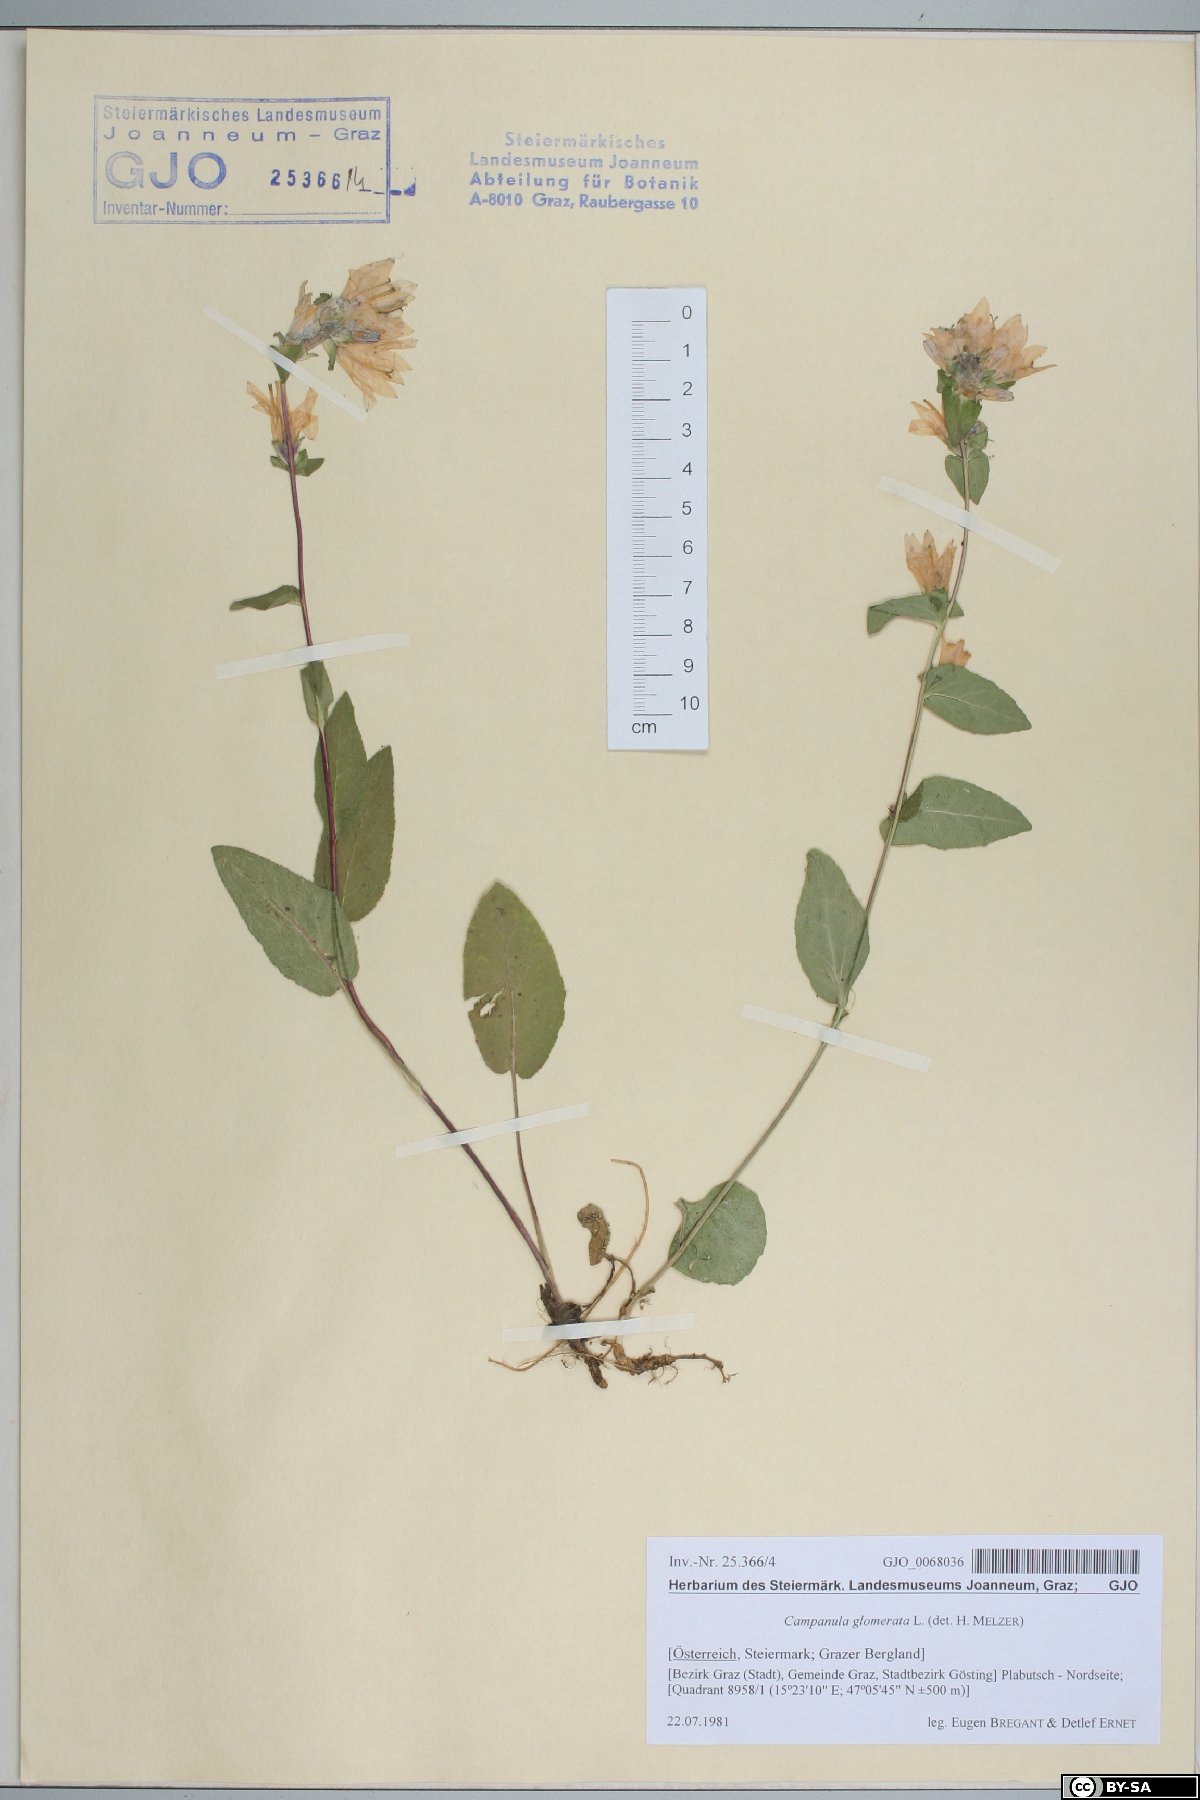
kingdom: Plantae
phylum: Tracheophyta
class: Magnoliopsida
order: Asterales
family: Campanulaceae
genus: Campanula
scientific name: Campanula glomerata
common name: Clustered bellflower
